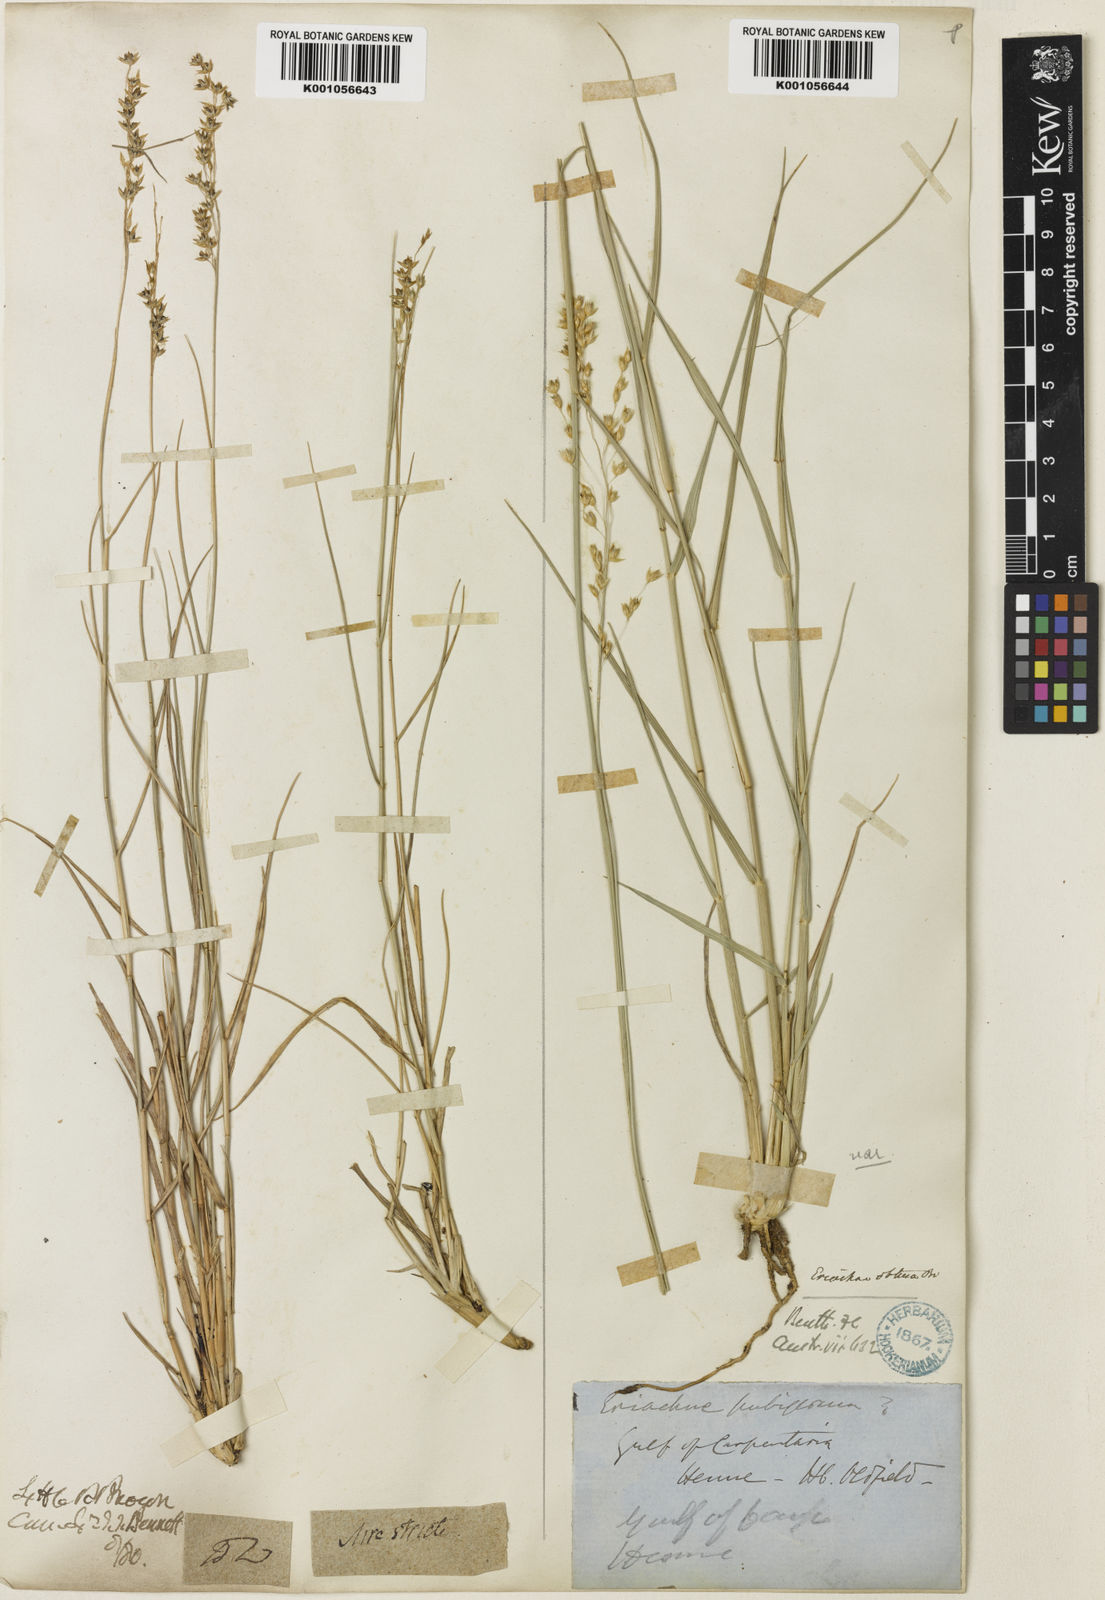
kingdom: Plantae
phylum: Tracheophyta
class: Liliopsida
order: Poales
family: Poaceae
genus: Eriachne
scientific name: Eriachne obtusa
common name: Northern wanderrie grass
